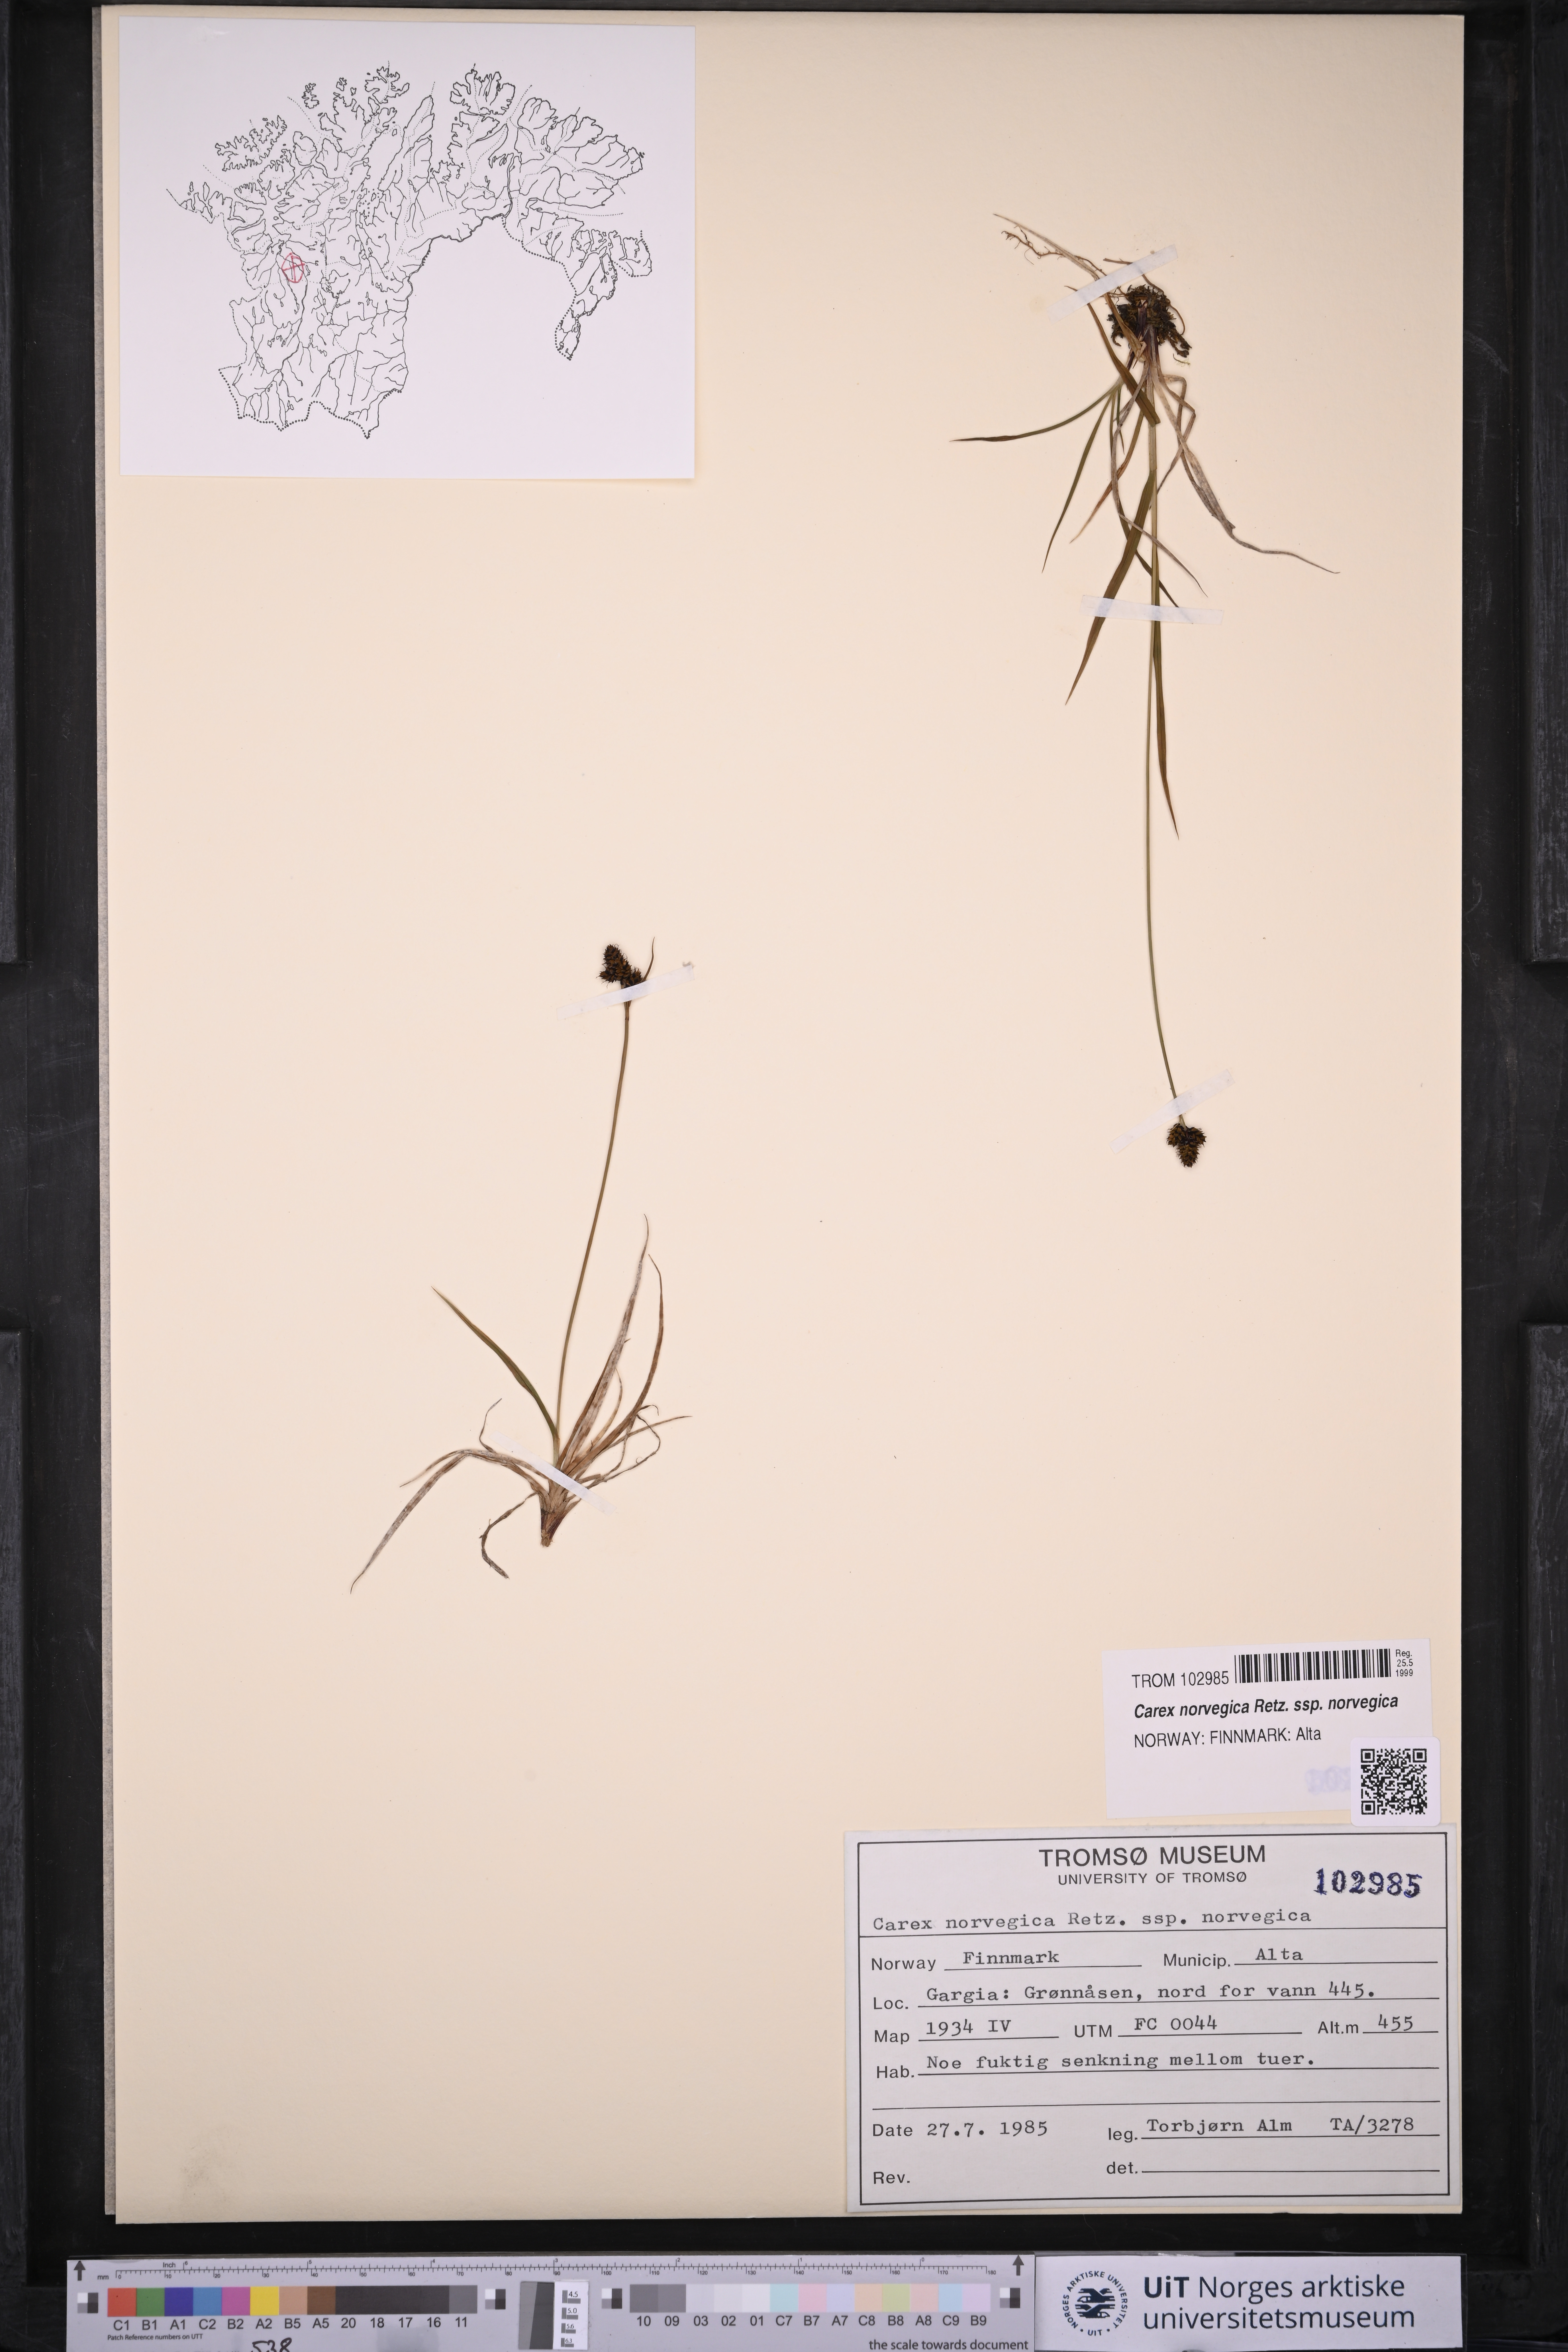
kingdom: Plantae
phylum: Tracheophyta
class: Liliopsida
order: Poales
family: Cyperaceae
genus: Carex
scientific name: Carex norvegica
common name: Close-headed alpine-sedge
